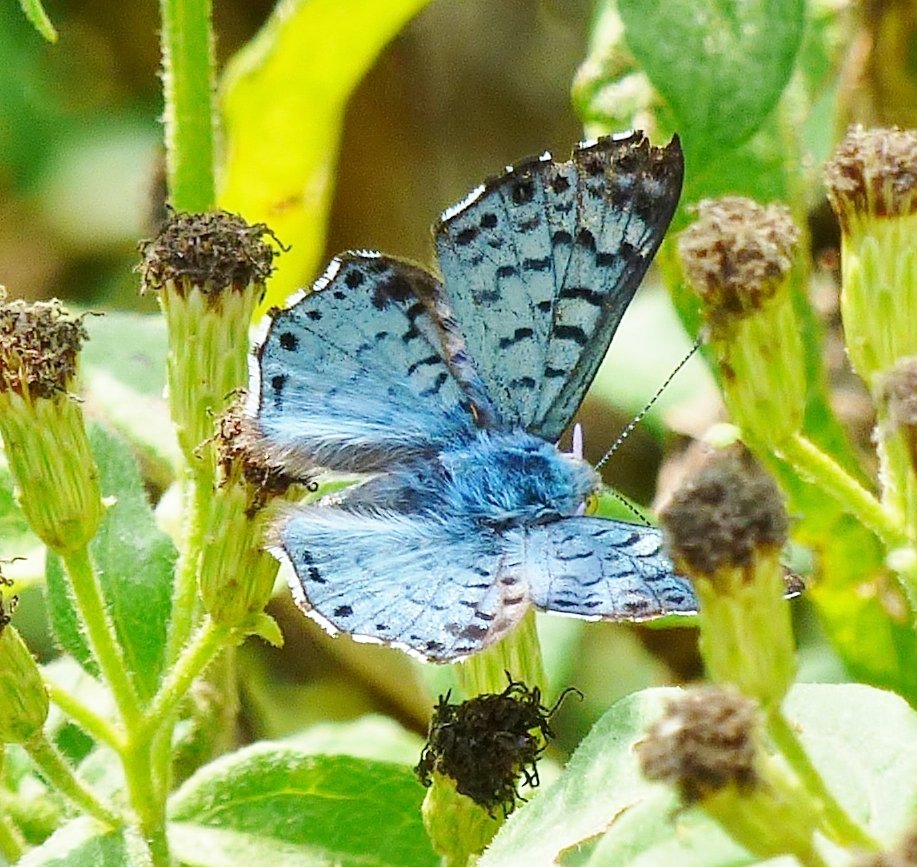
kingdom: Animalia
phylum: Arthropoda
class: Insecta
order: Lepidoptera
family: Riodinidae
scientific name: Riodinidae
